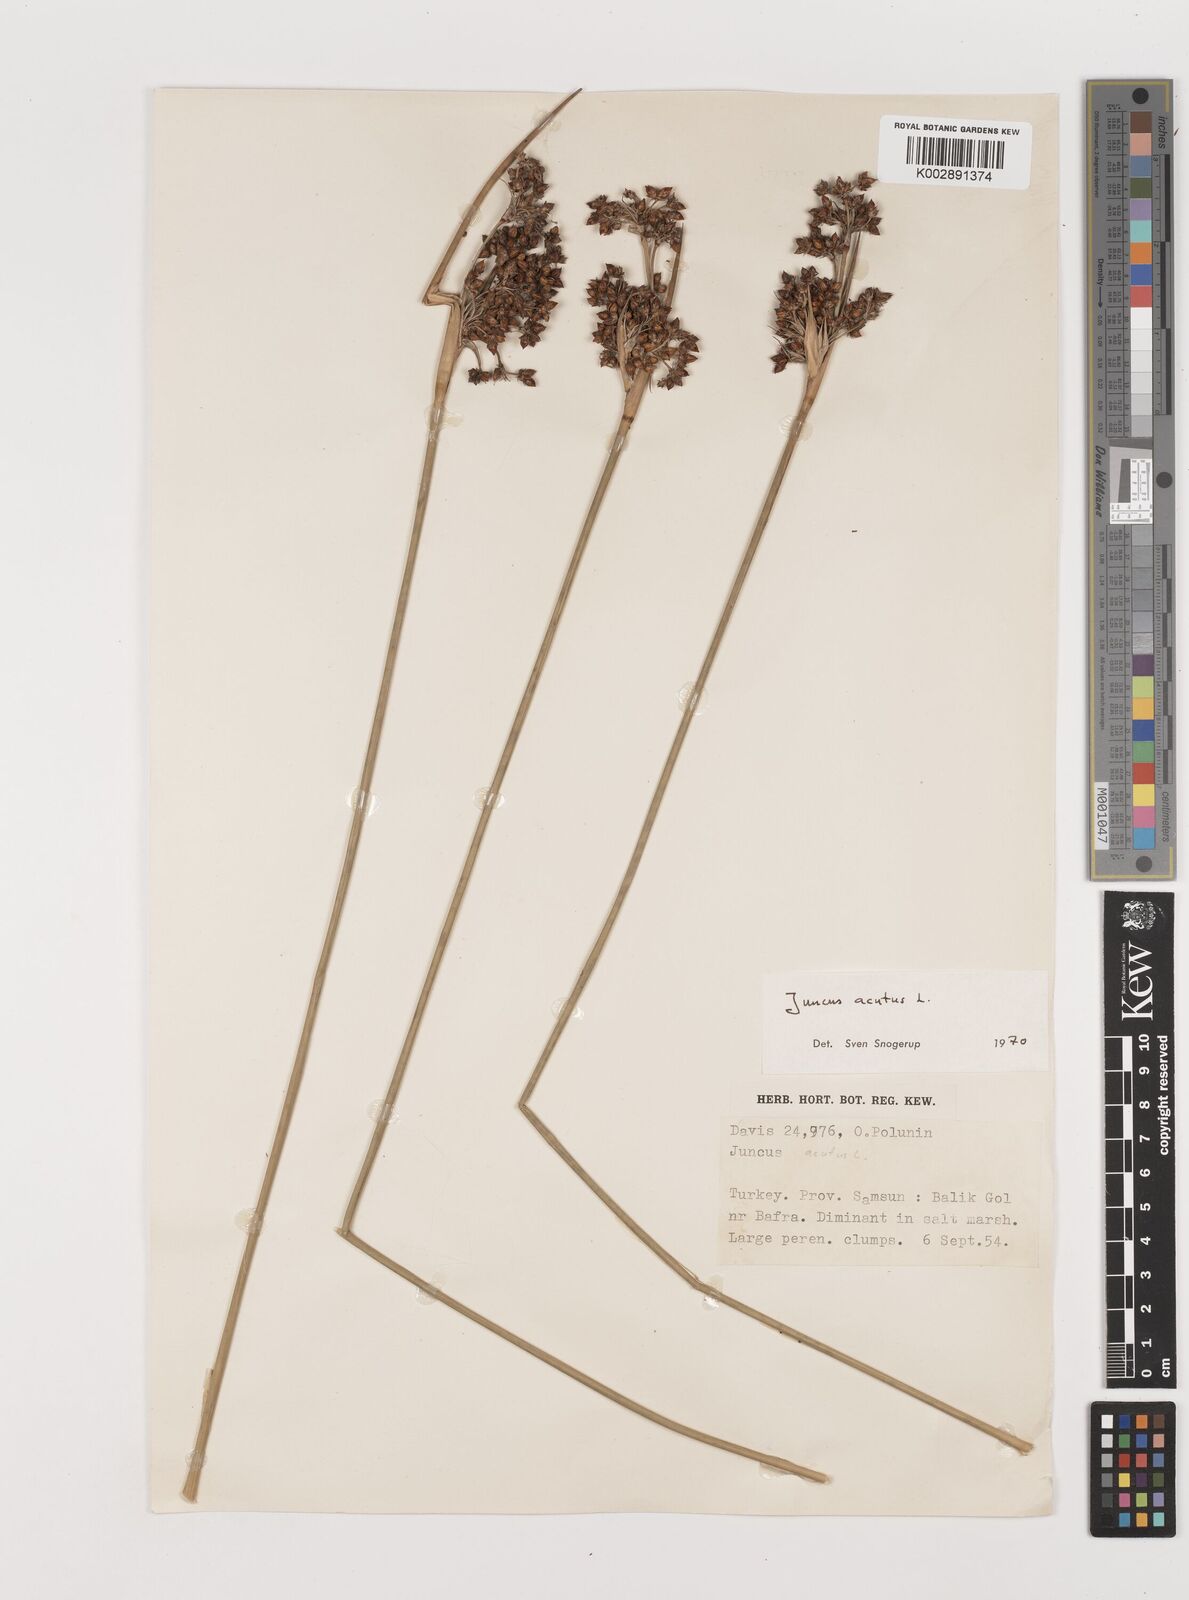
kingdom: Plantae
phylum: Tracheophyta
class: Liliopsida
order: Poales
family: Juncaceae
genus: Juncus
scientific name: Juncus acutus
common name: Sharp rush
